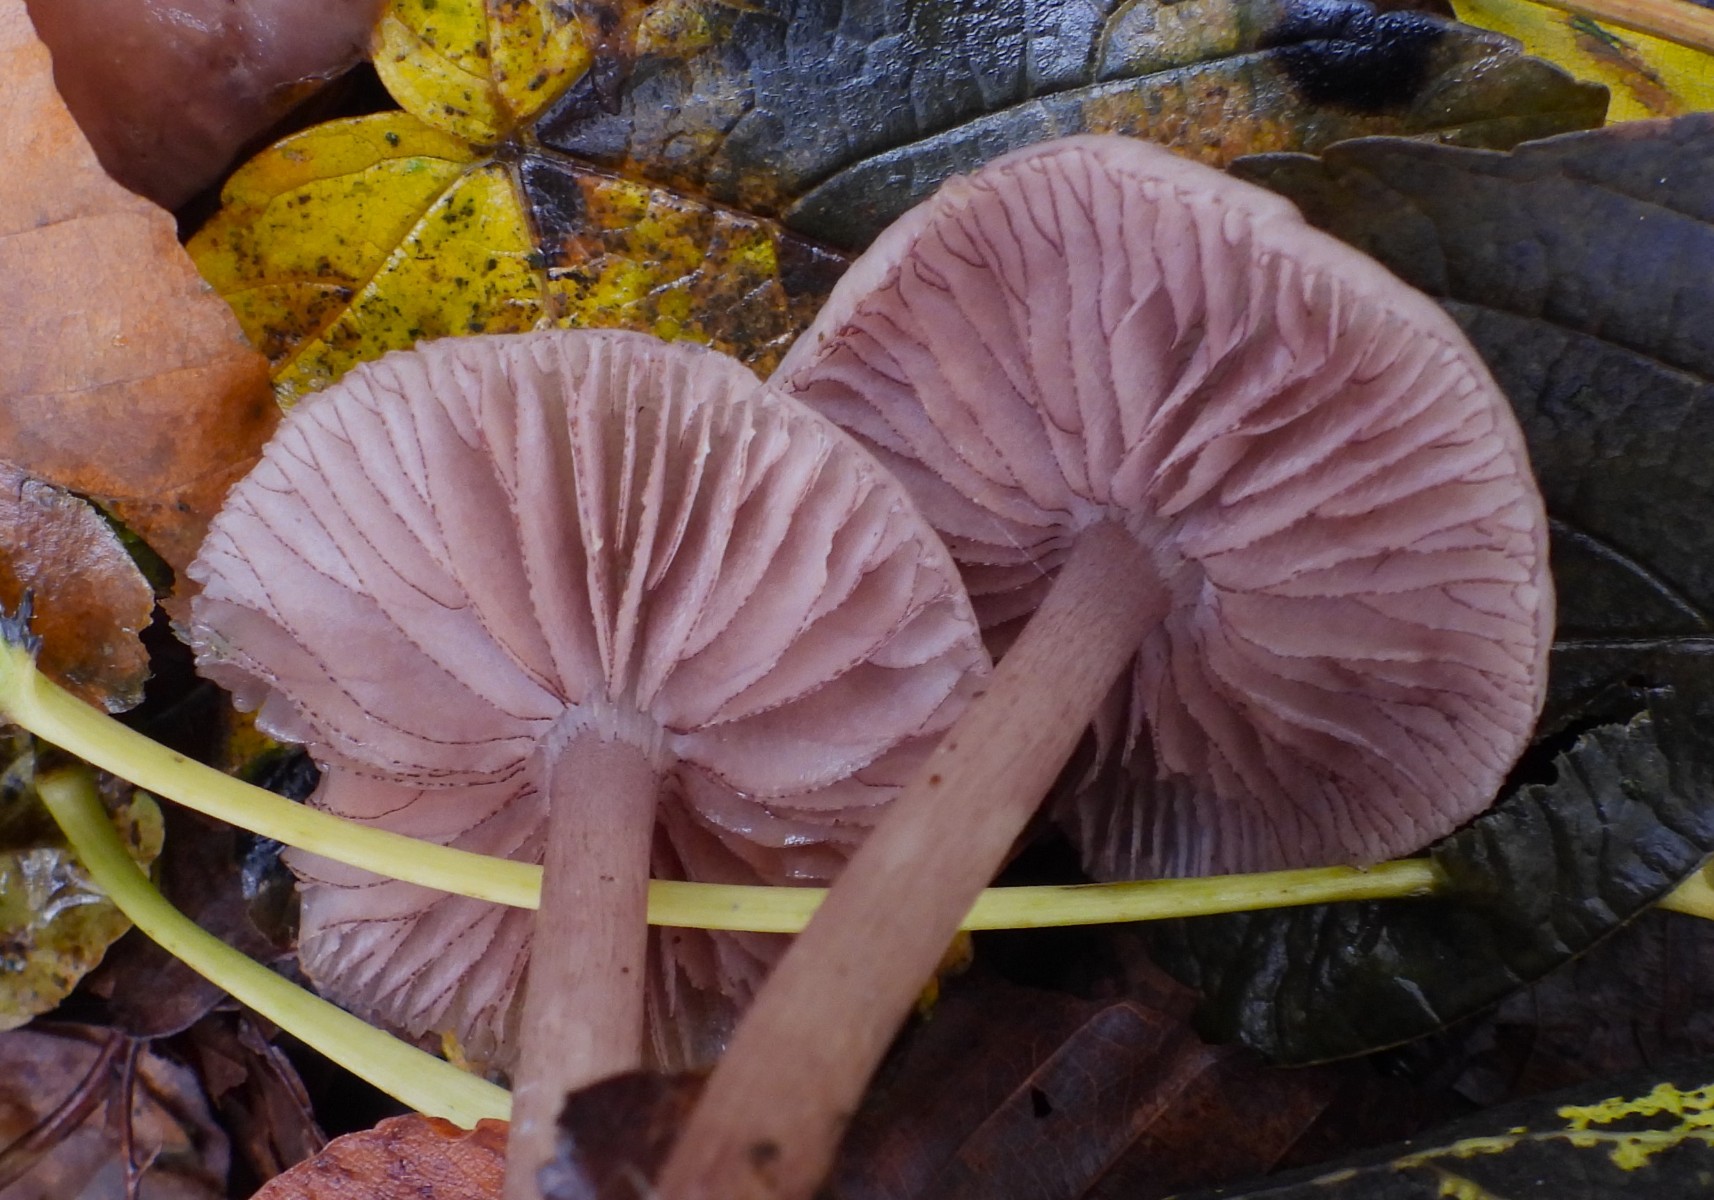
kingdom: Fungi
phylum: Basidiomycota
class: Agaricomycetes
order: Agaricales
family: Mycenaceae
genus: Mycena
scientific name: Mycena pelianthina
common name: mørkbladet huesvamp
